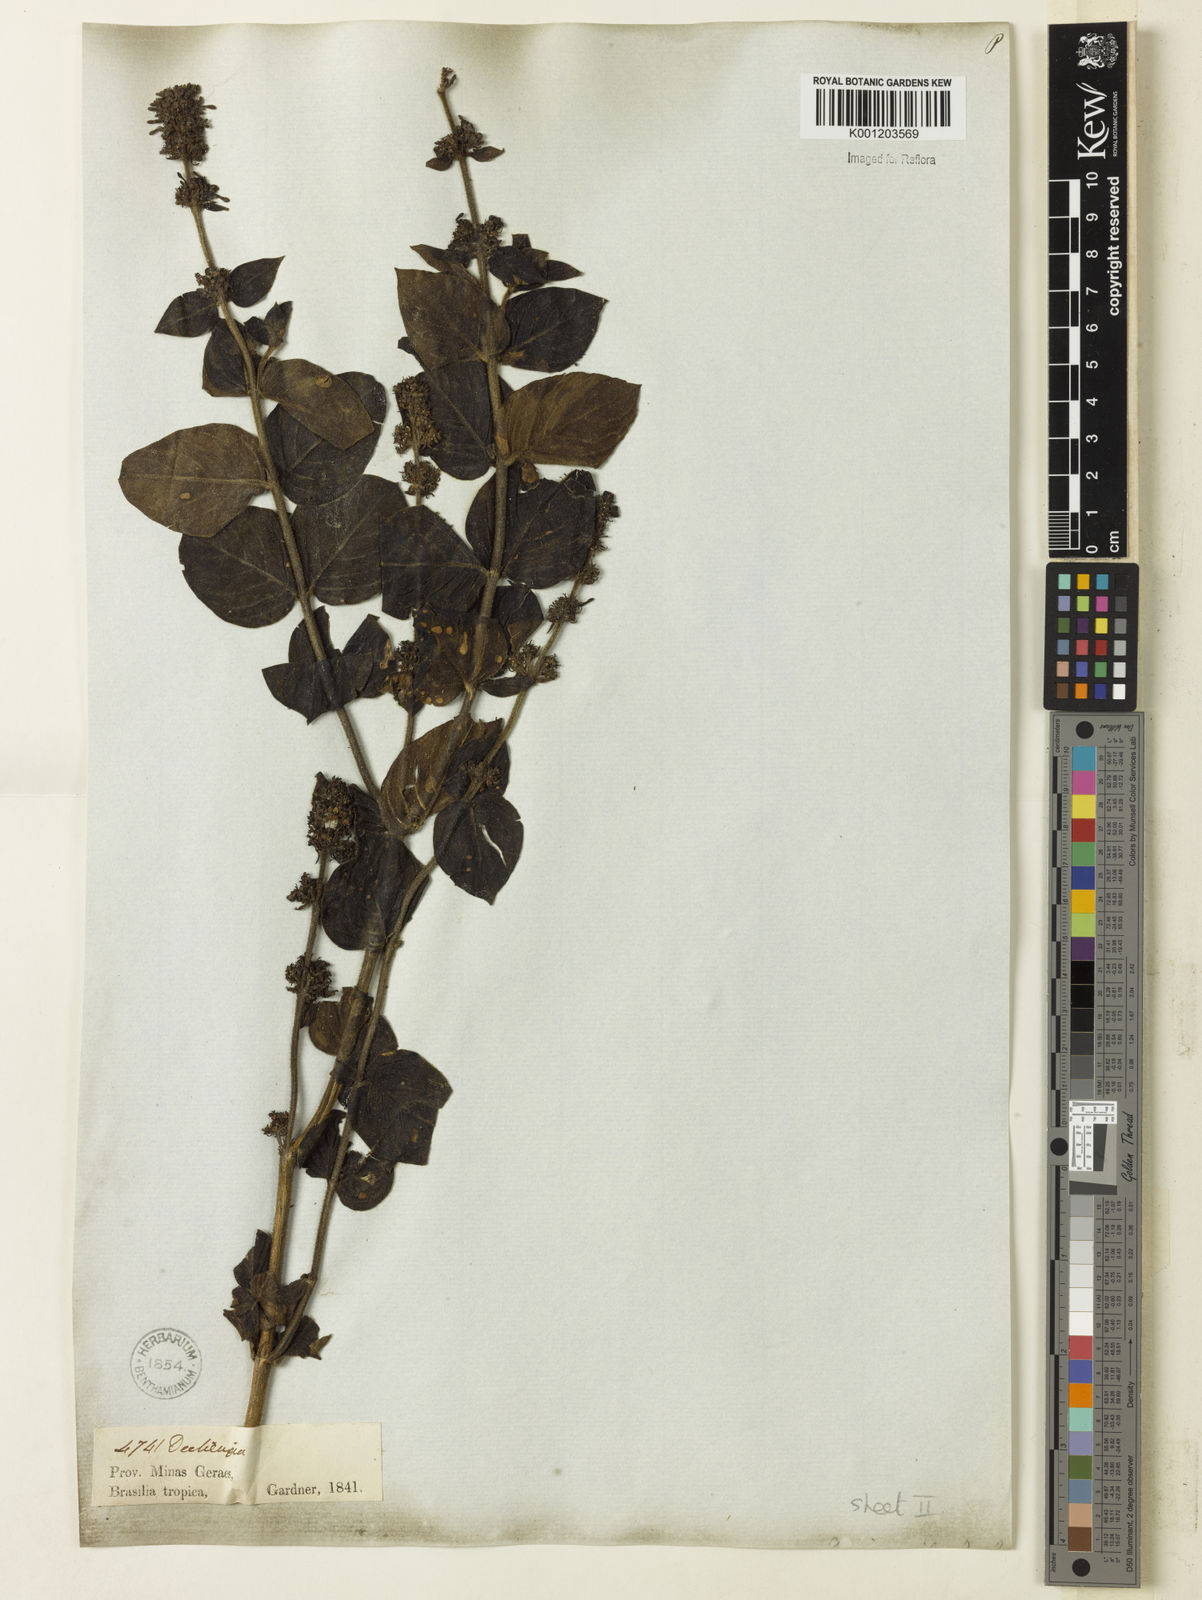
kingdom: Plantae
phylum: Tracheophyta
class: Magnoliopsida
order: Gentianales
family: Rubiaceae
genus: Declieuxia
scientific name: Declieuxia fruticosa
